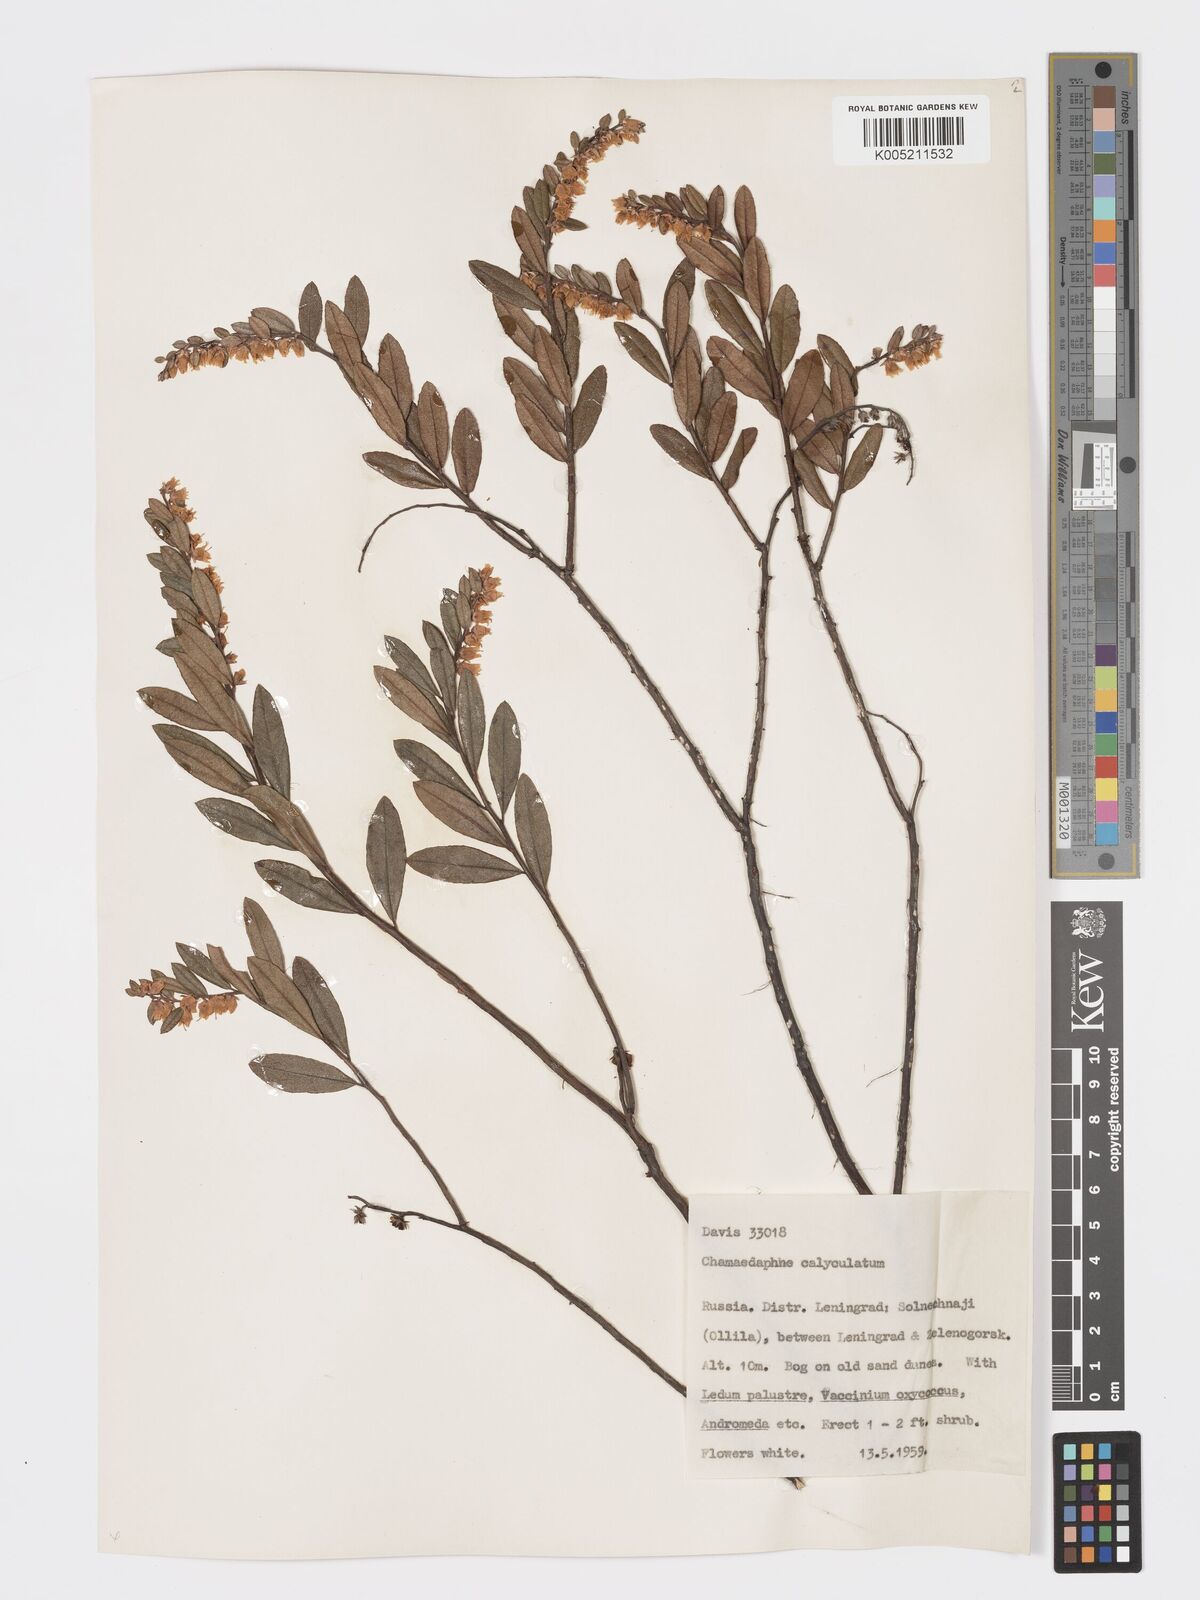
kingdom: Plantae
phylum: Tracheophyta
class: Magnoliopsida
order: Ericales
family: Ericaceae
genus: Chamaedaphne
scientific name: Chamaedaphne calyculata
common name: Leatherleaf
